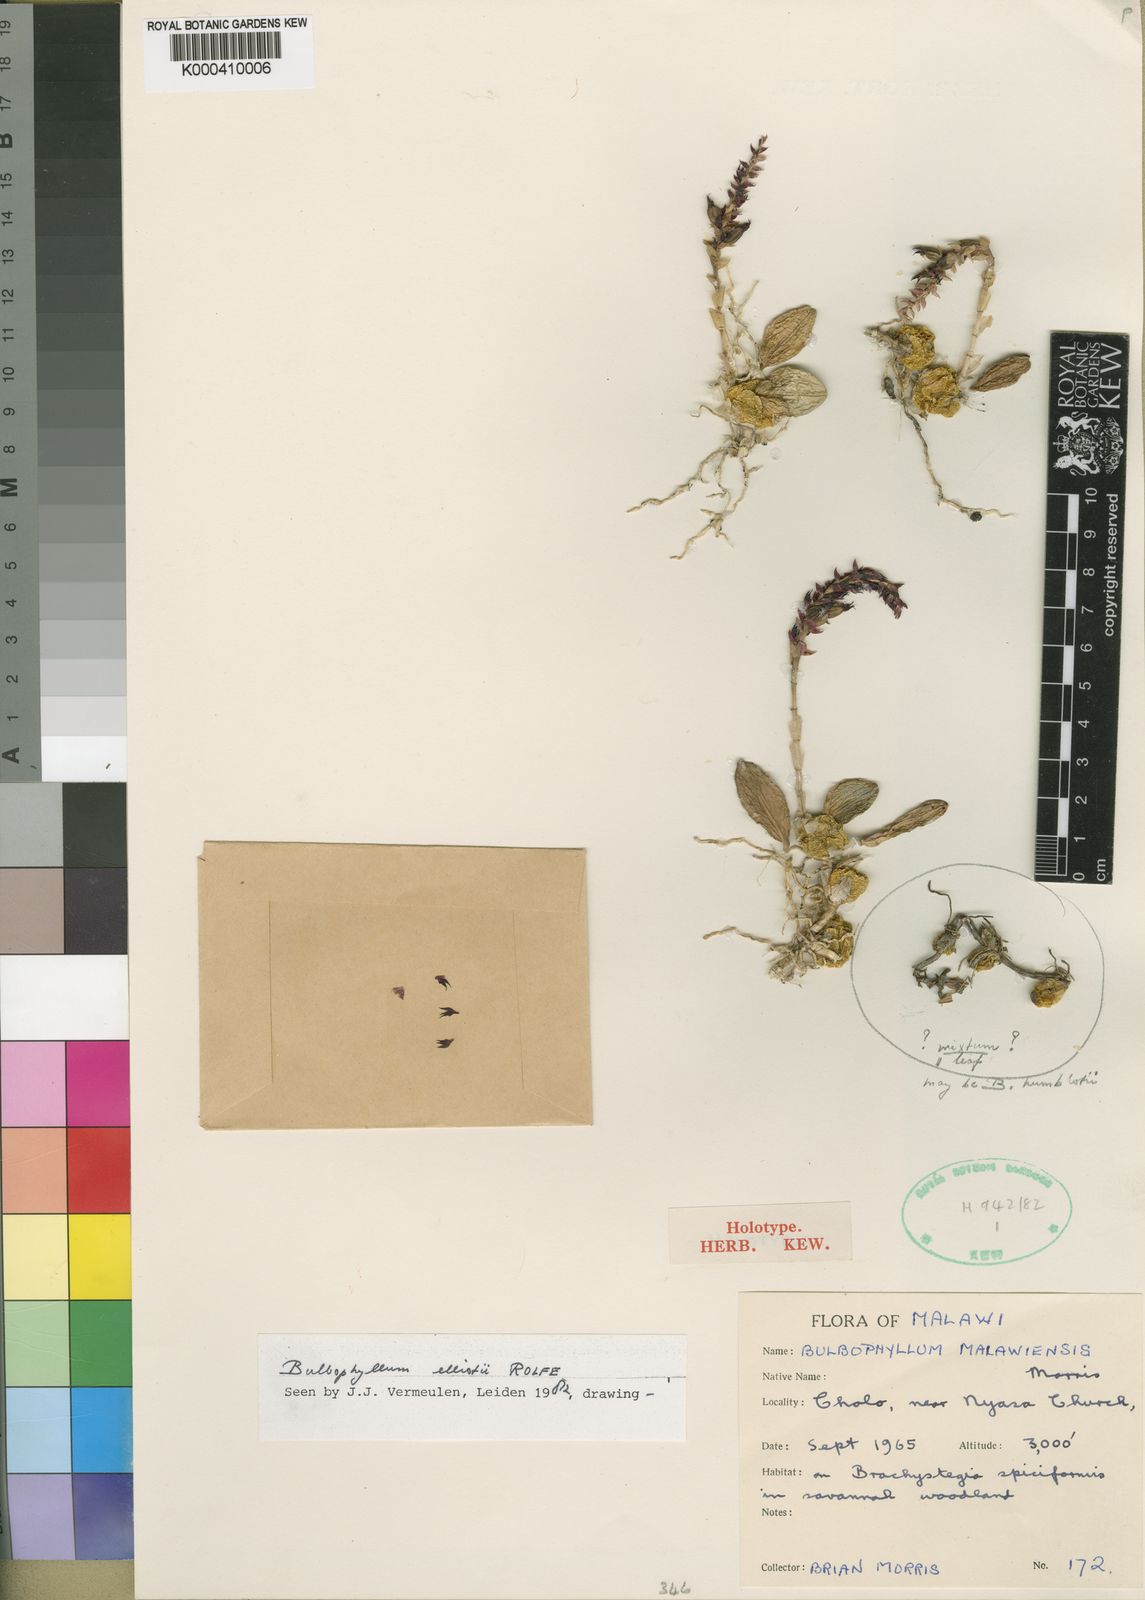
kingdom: Plantae
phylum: Tracheophyta
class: Liliopsida
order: Asparagales
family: Orchidaceae
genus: Bulbophyllum
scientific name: Bulbophyllum elliotii
